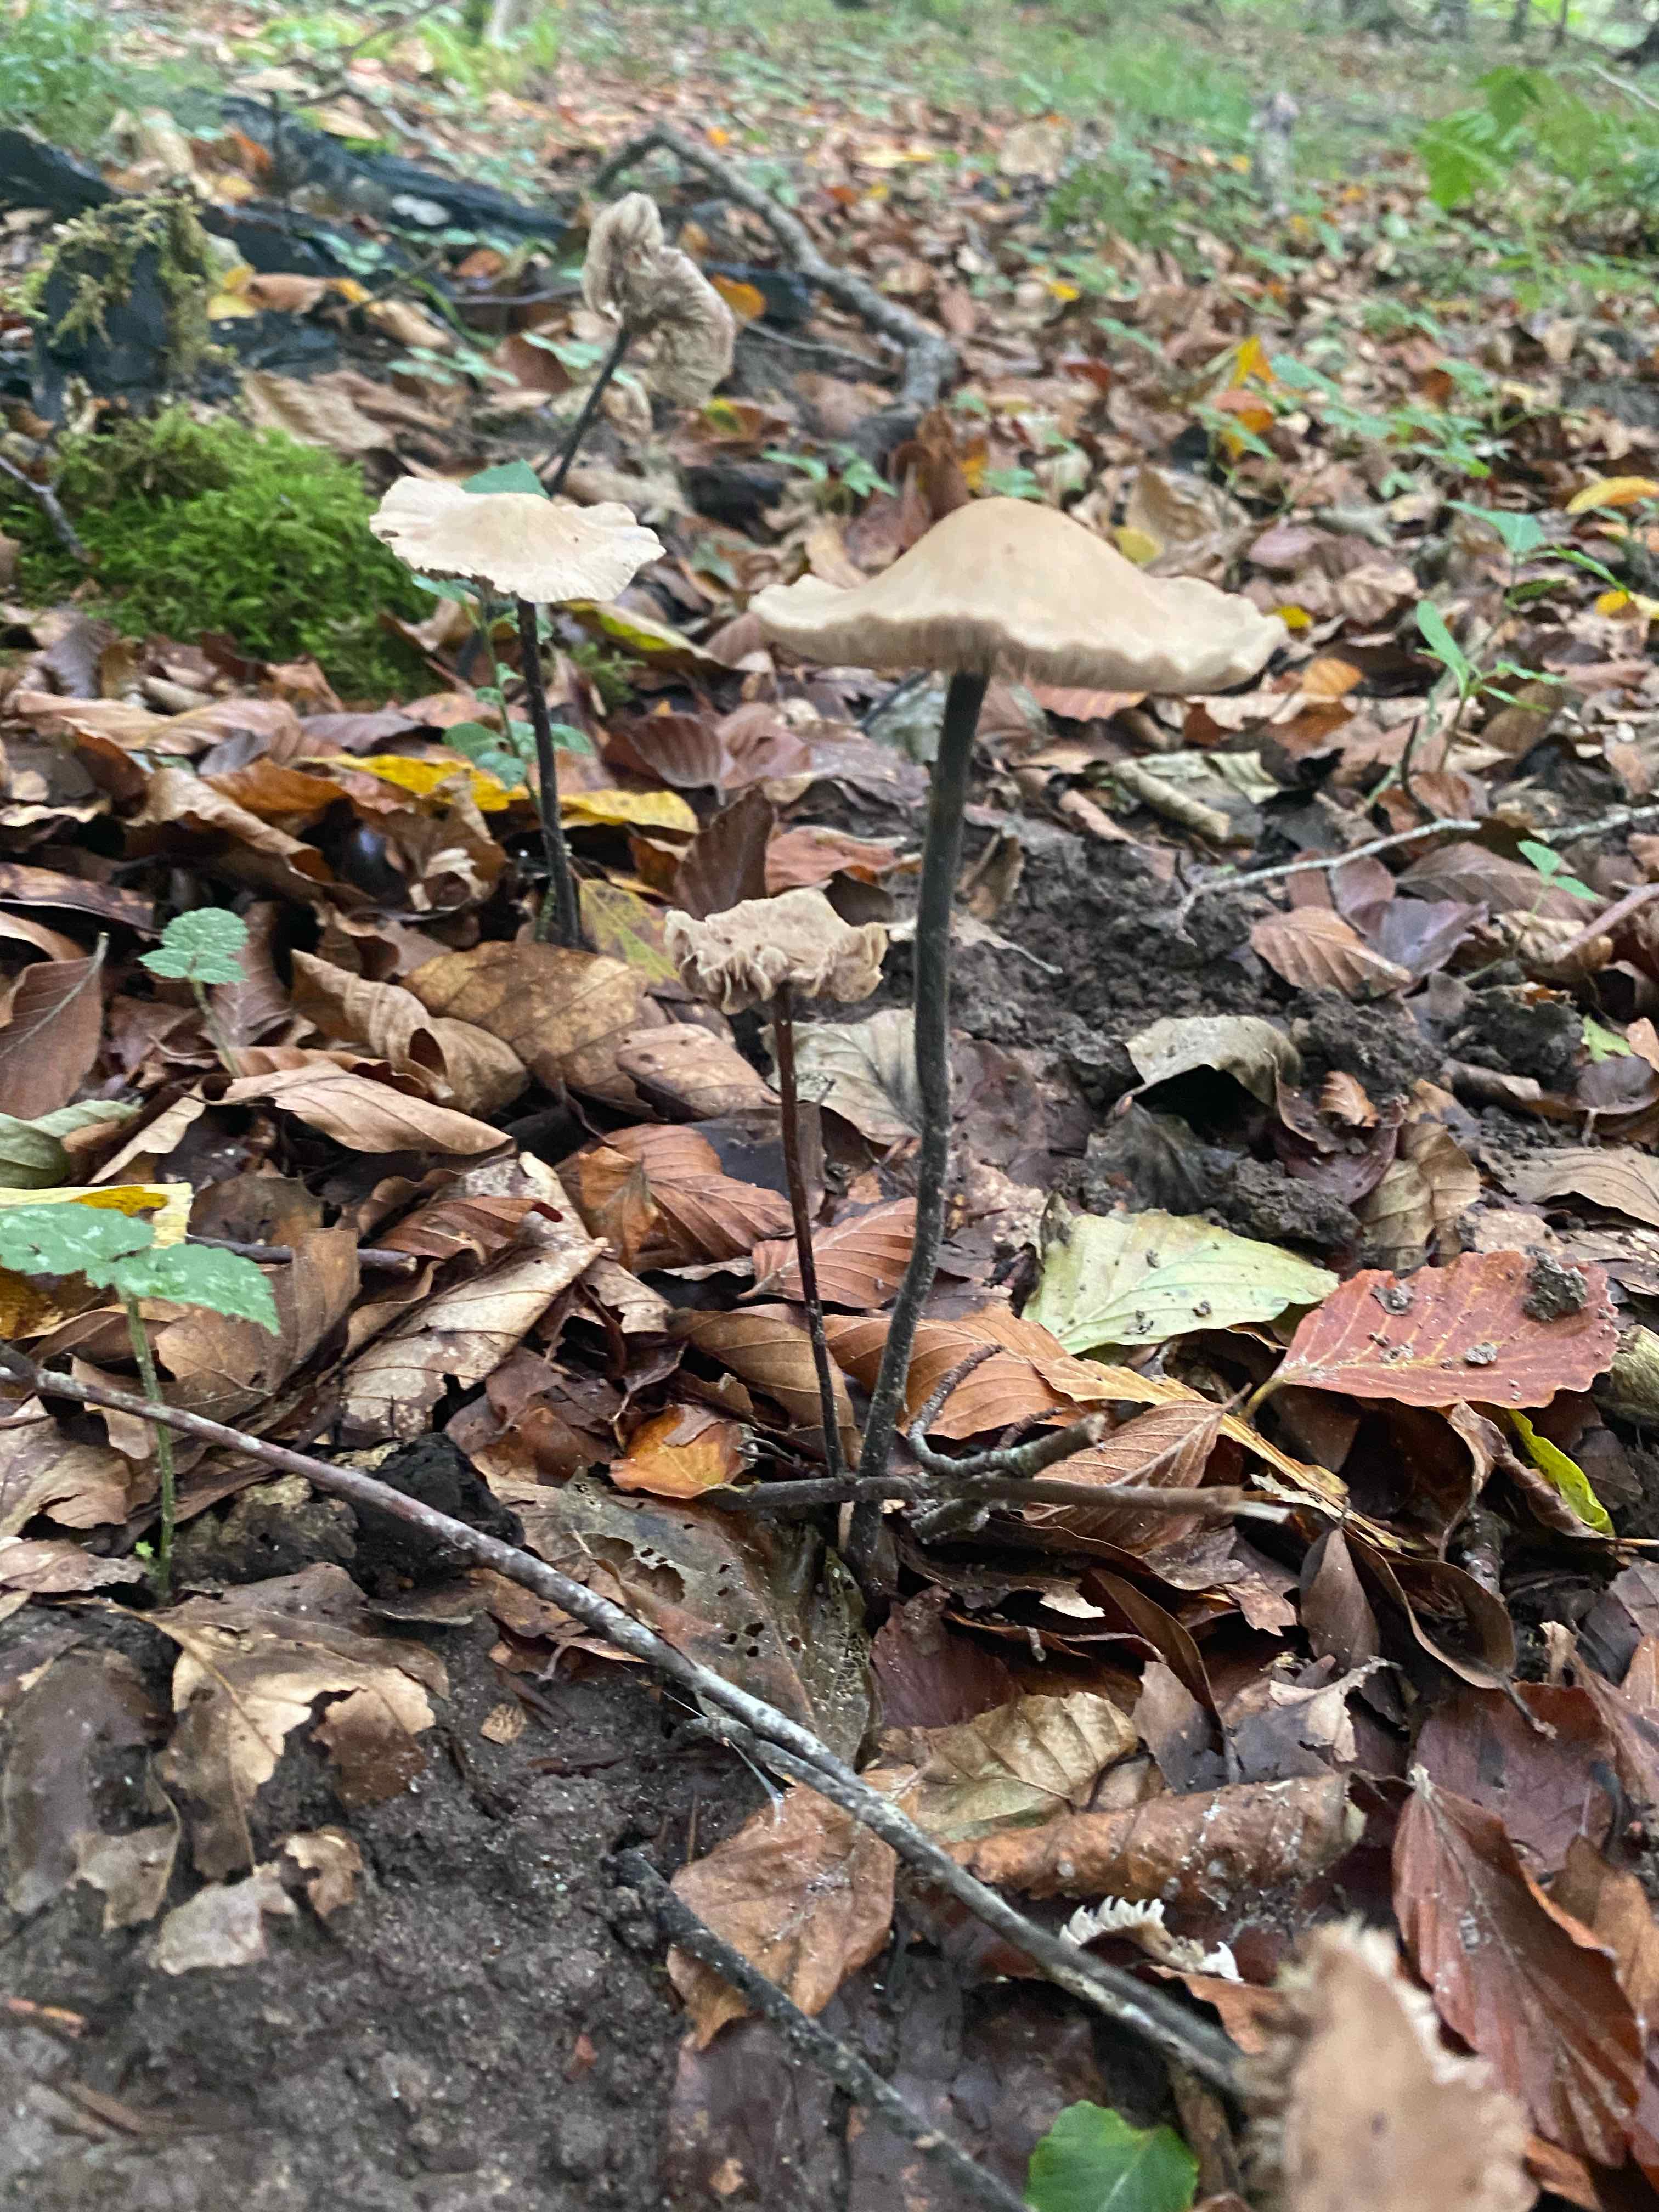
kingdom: Fungi
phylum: Basidiomycota
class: Agaricomycetes
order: Agaricales
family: Omphalotaceae
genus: Mycetinis
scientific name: Mycetinis alliaceus
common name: stor løghat
